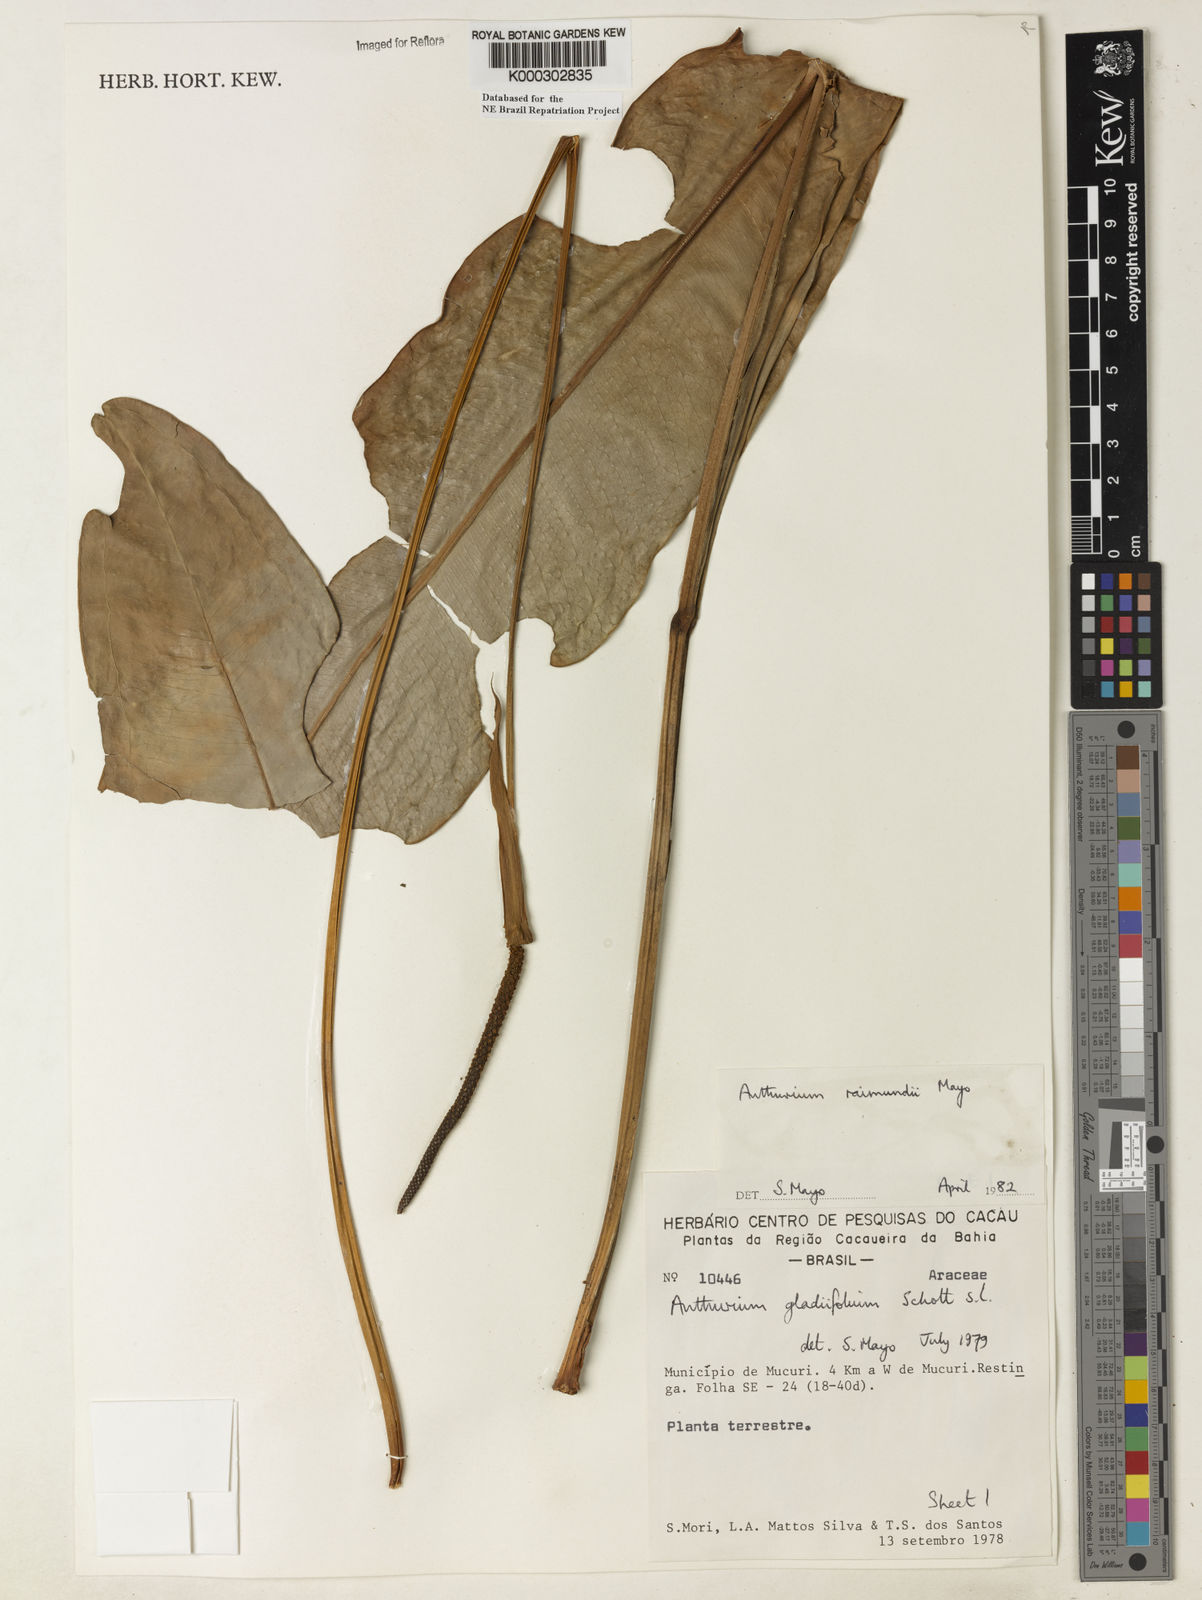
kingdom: Plantae
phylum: Tracheophyta
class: Liliopsida
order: Alismatales
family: Araceae
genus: Anthurium
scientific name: Anthurium raimundii
